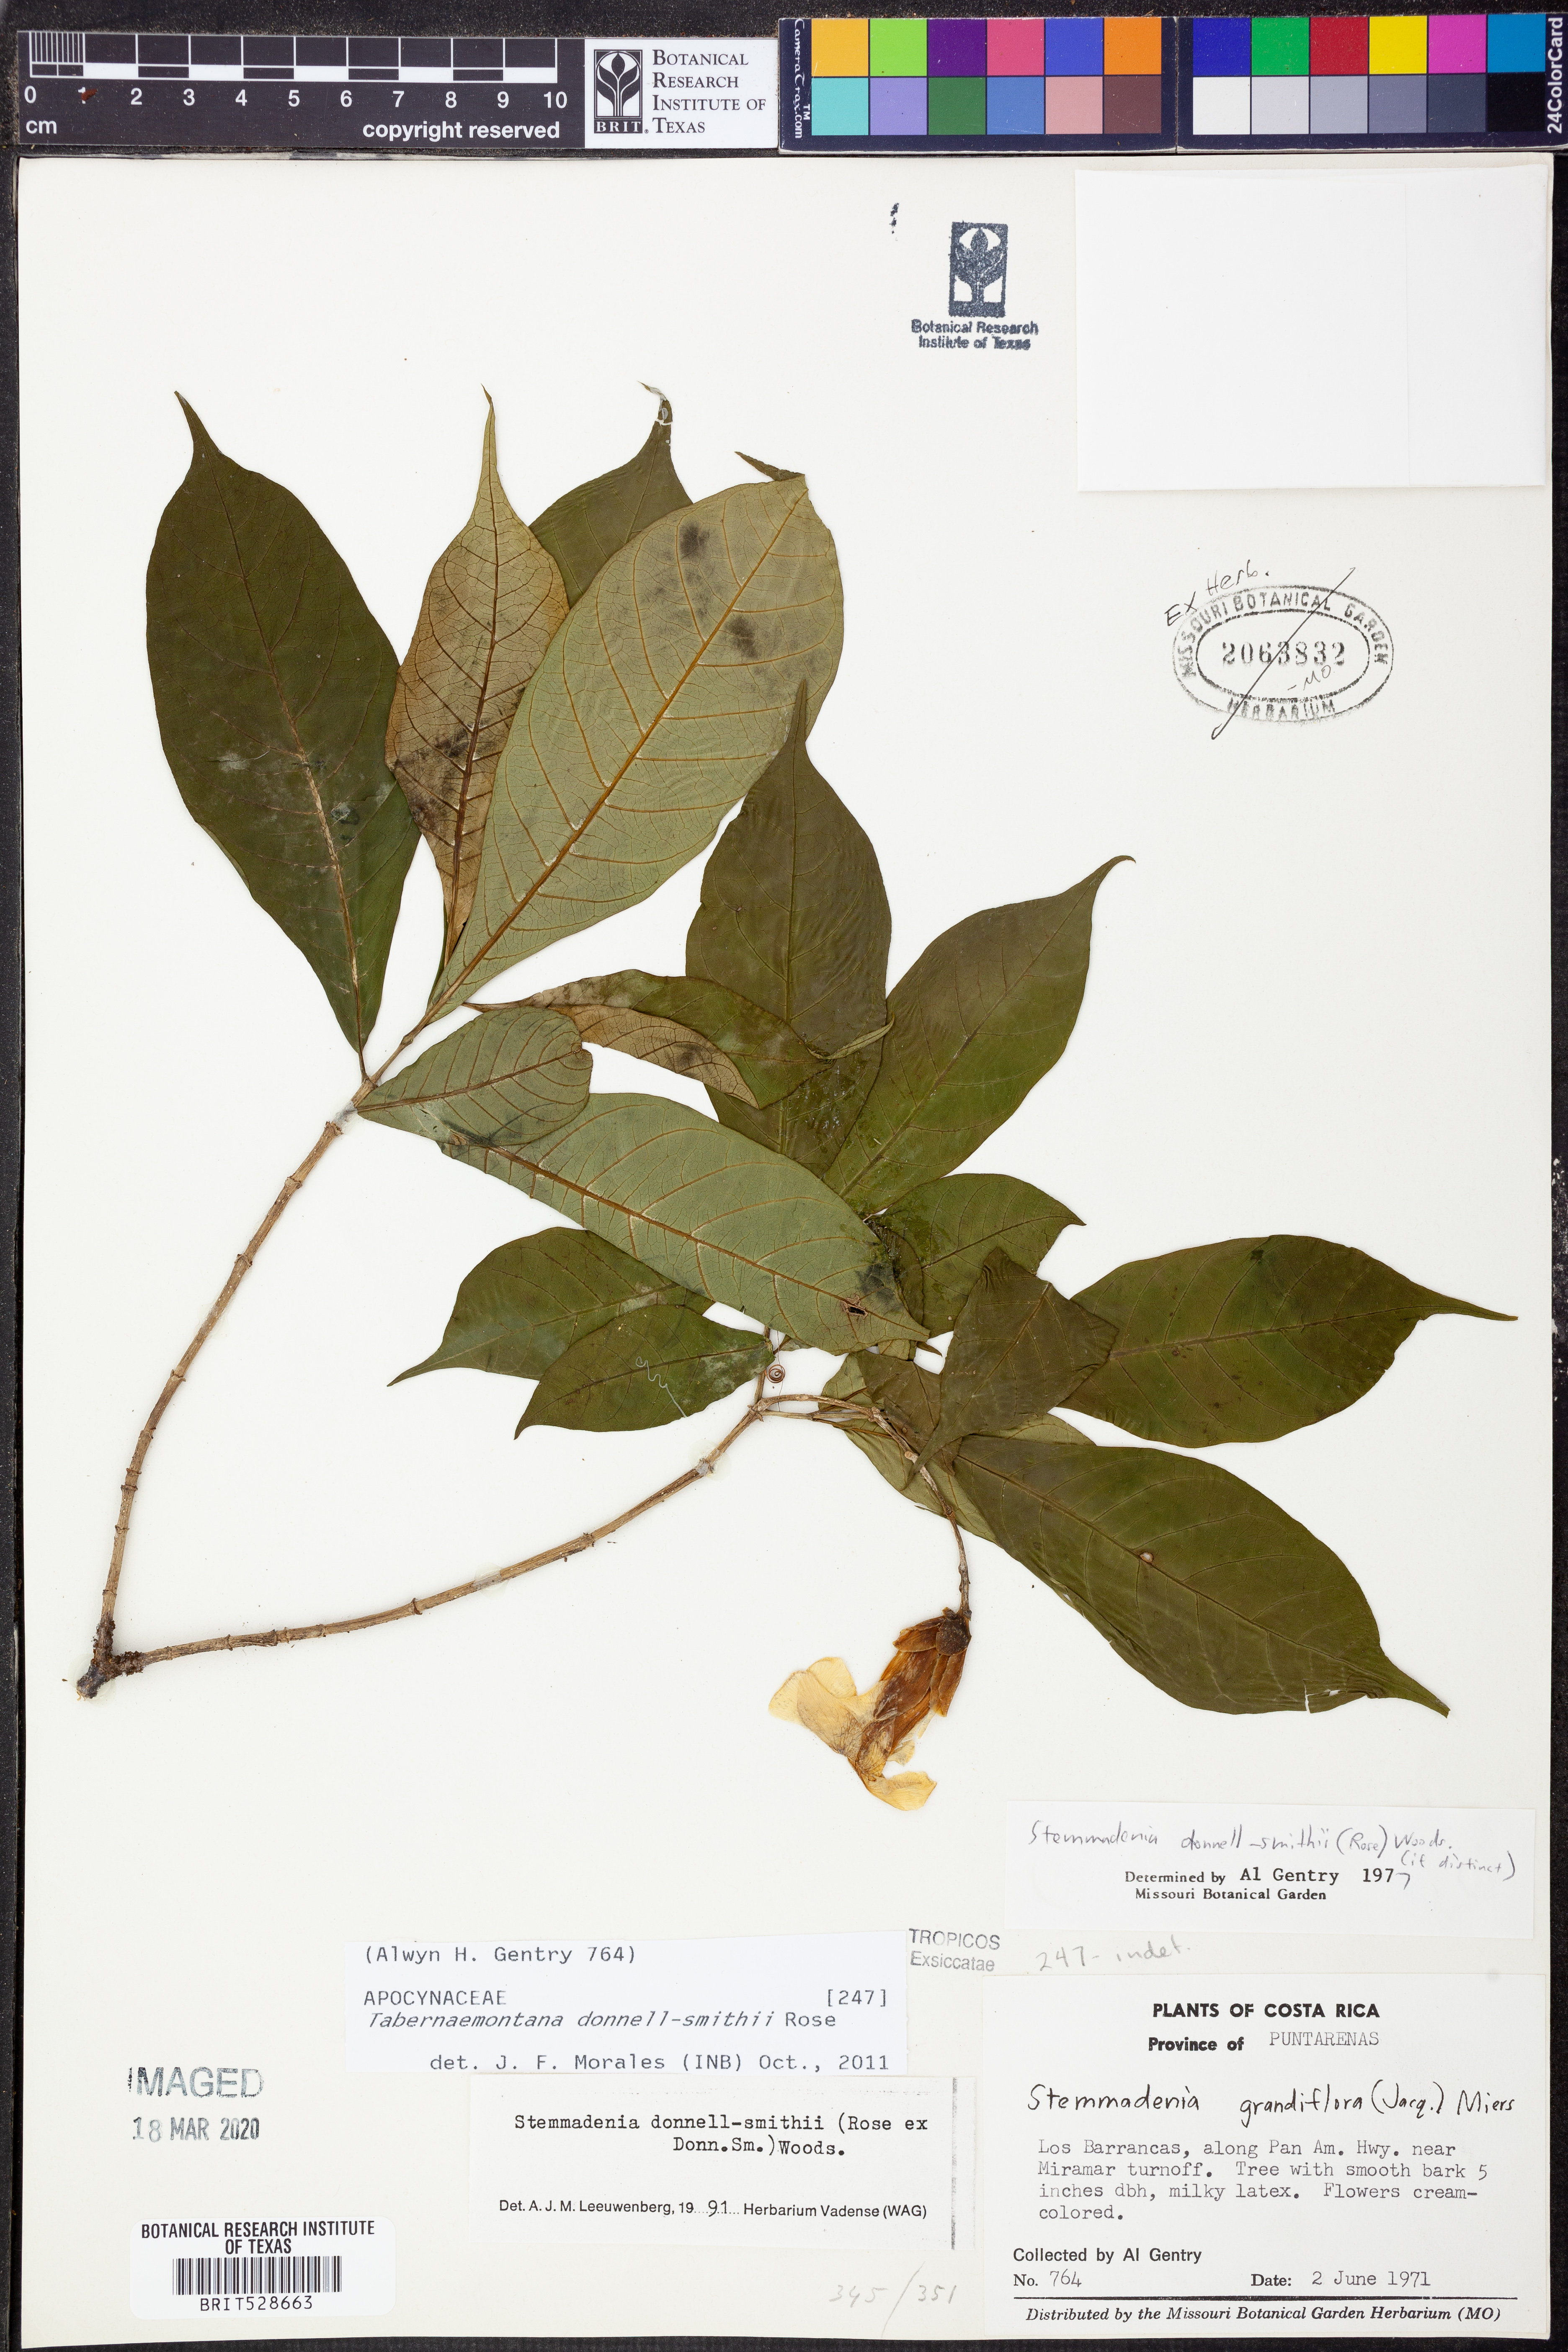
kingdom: Plantae
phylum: Tracheophyta
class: Magnoliopsida
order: Gentianales
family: Apocynaceae
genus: Tabernaemontana
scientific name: Tabernaemontana donnell-smithii
